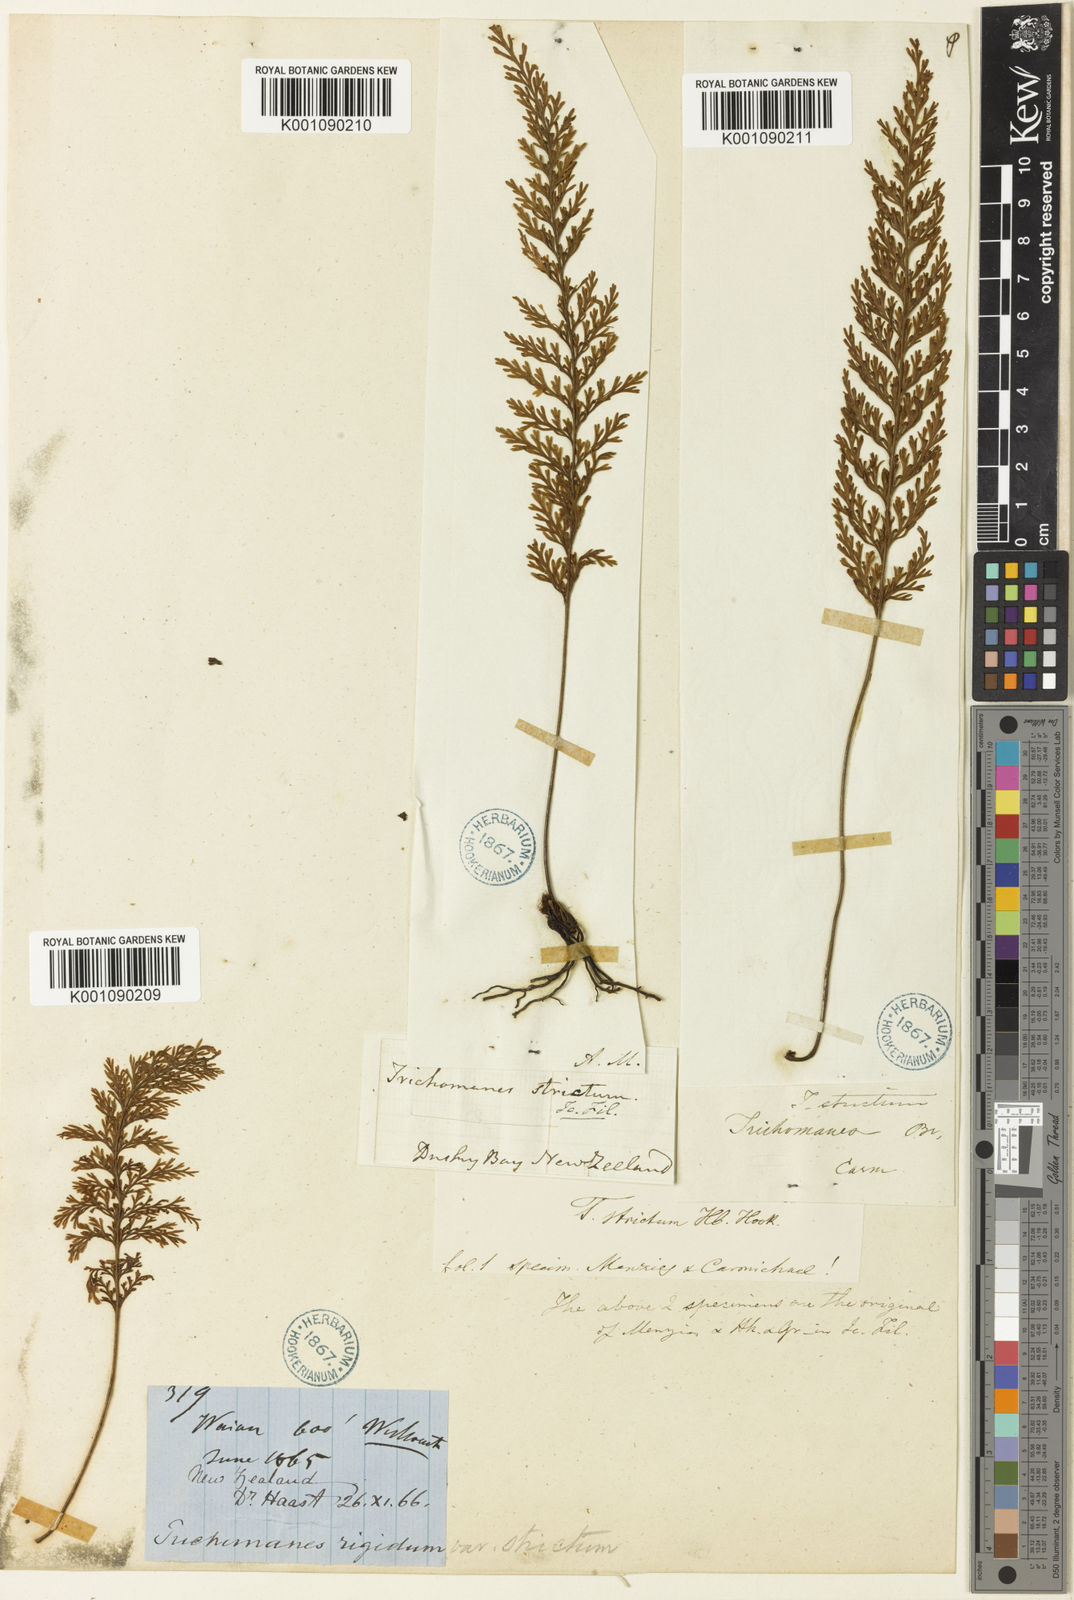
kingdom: Plantae
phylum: Tracheophyta
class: Polypodiopsida
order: Hymenophyllales
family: Hymenophyllaceae
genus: Abrodictyum
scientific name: Abrodictyum strictum
